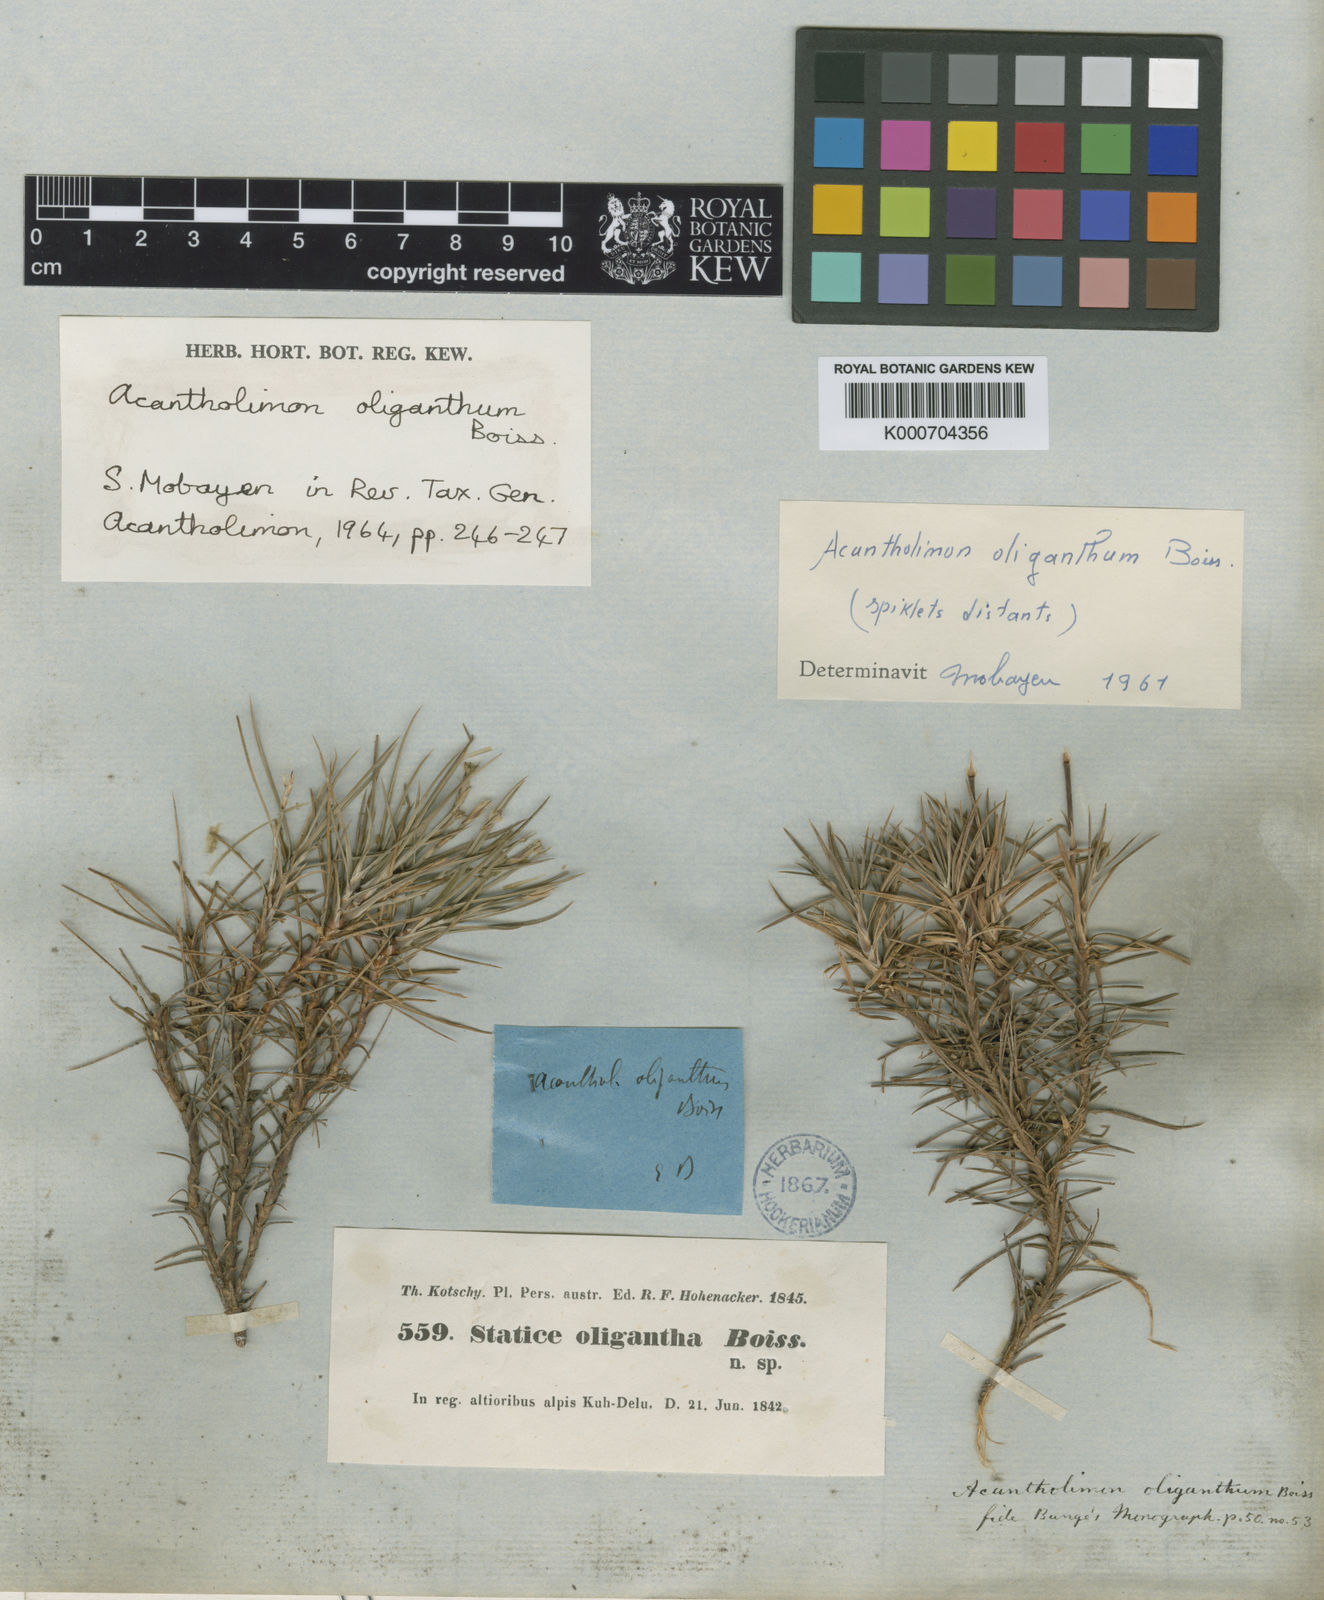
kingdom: Plantae
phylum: Tracheophyta
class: Magnoliopsida
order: Caryophyllales
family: Plumbaginaceae
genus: Acantholimon
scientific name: Acantholimon oliganthum
